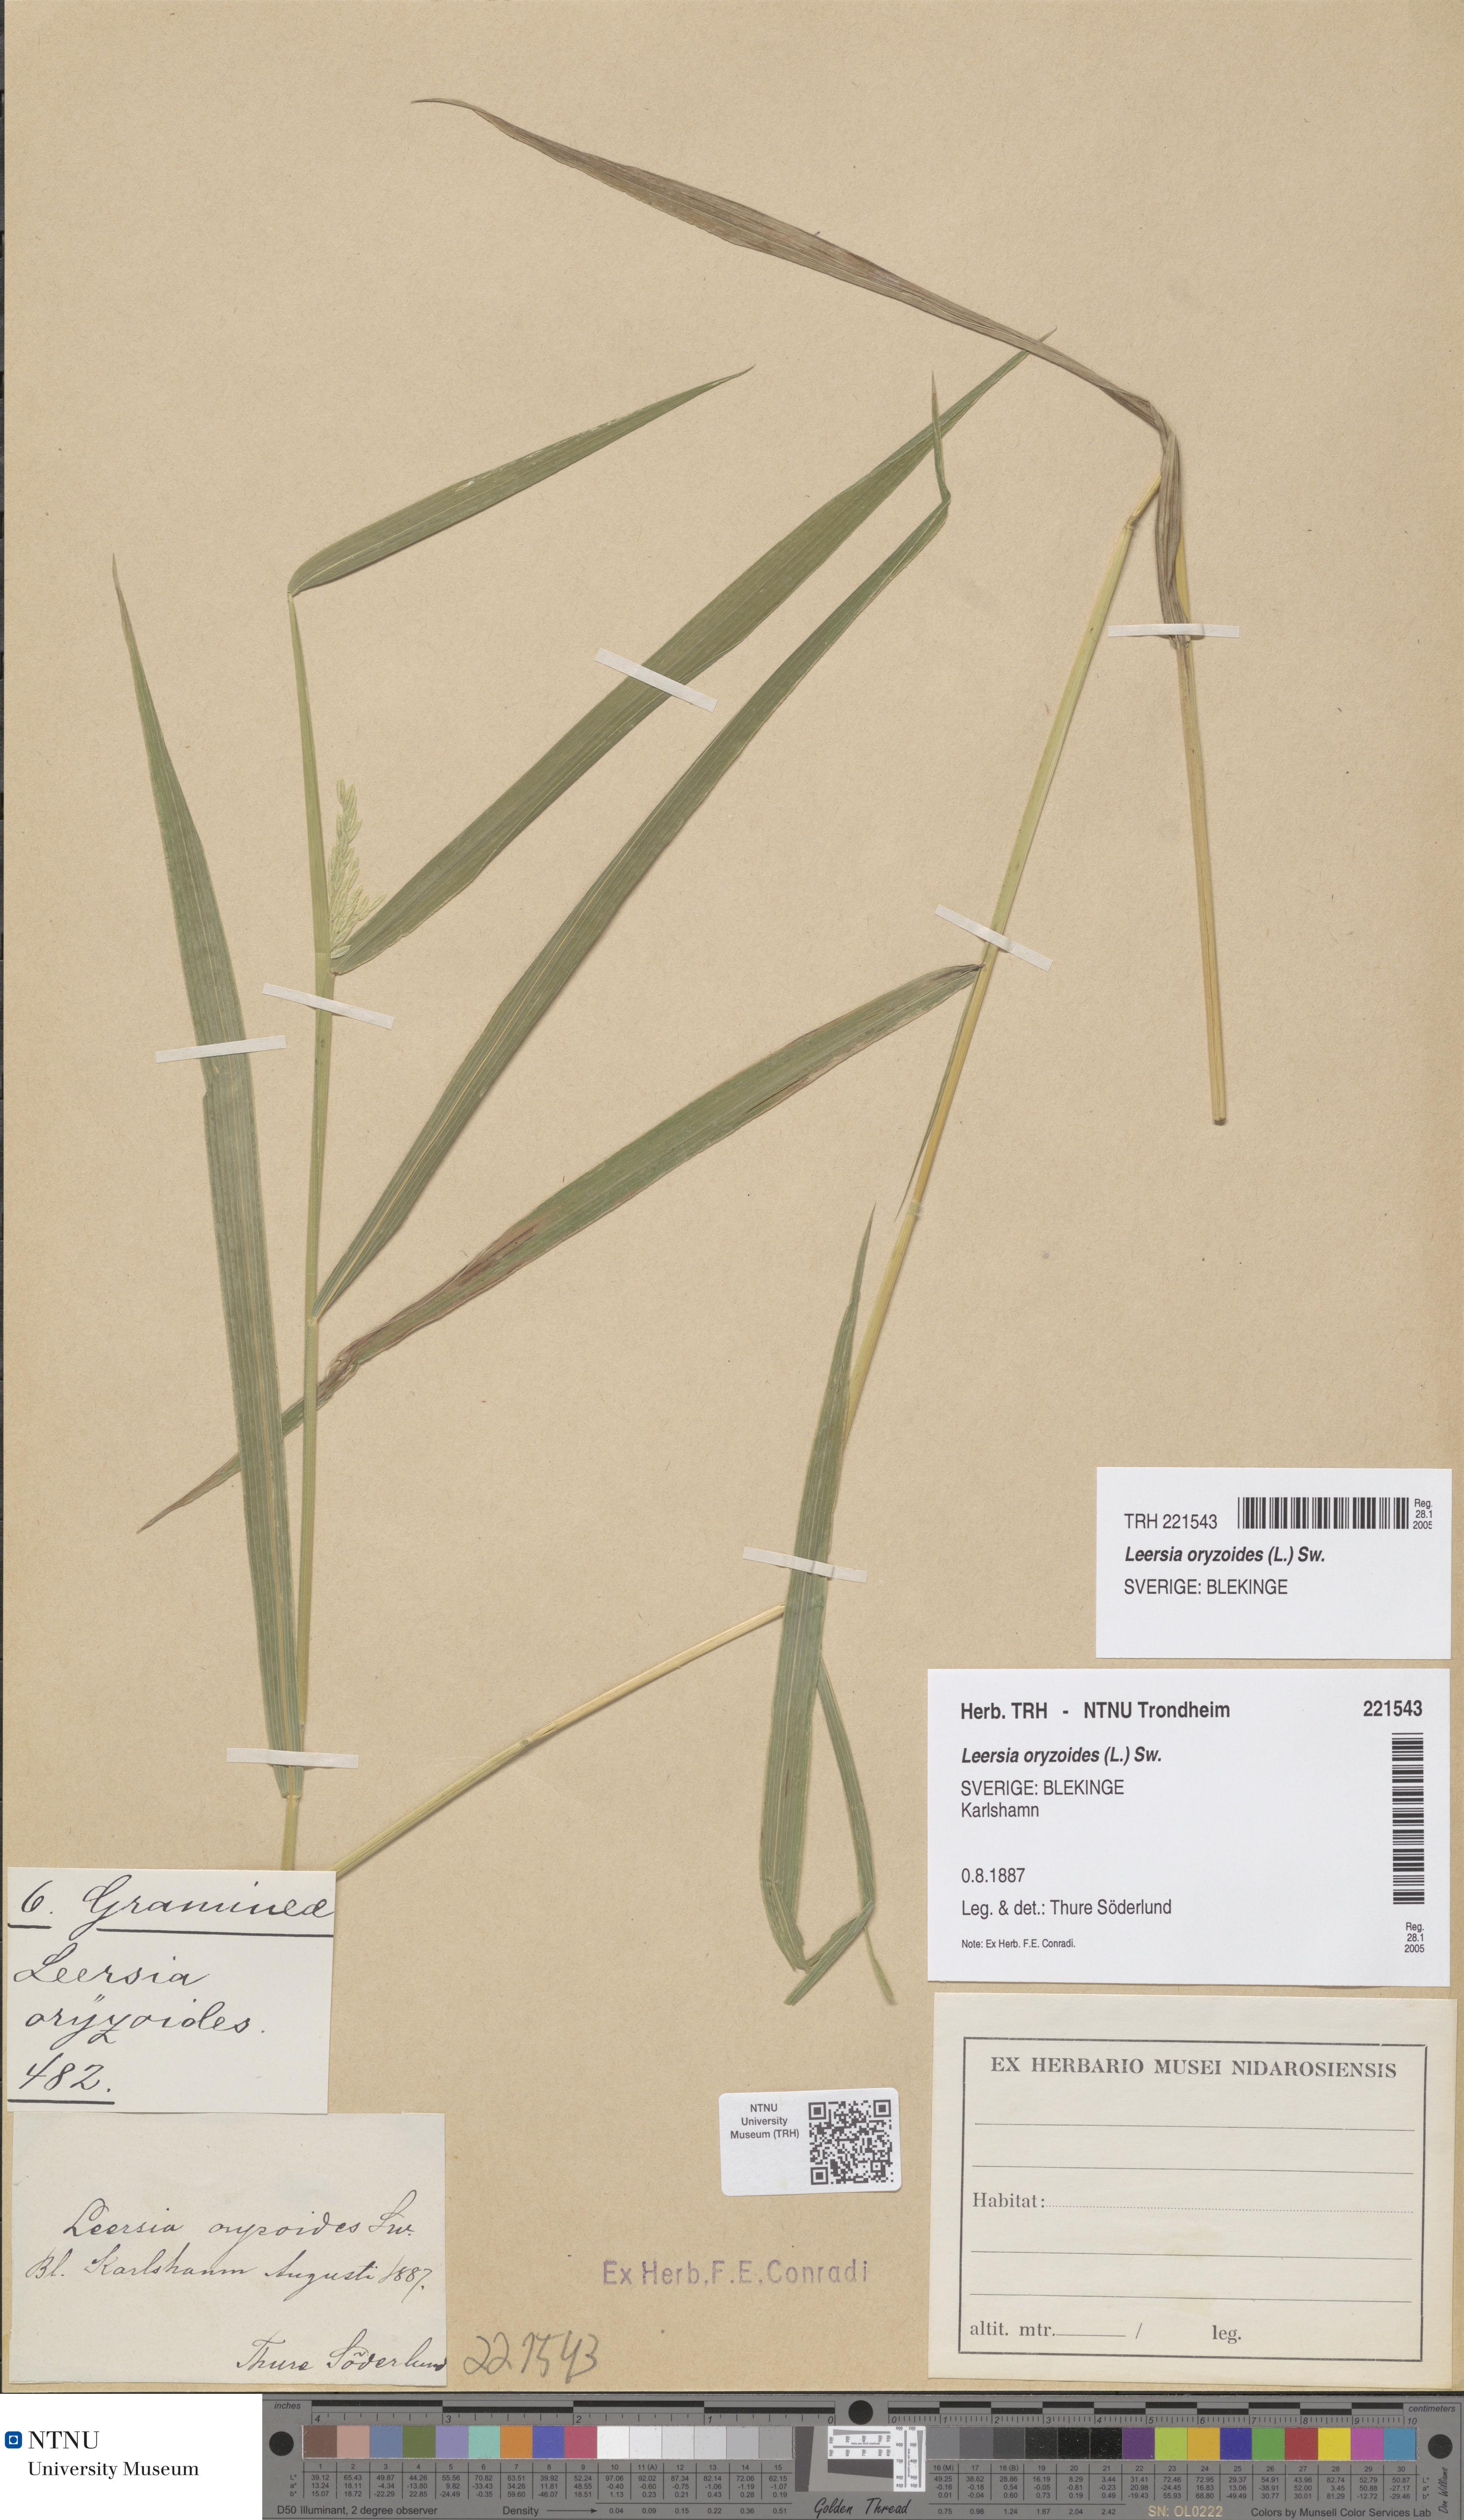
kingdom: Plantae
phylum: Tracheophyta
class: Liliopsida
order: Poales
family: Poaceae
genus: Leersia
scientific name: Leersia oryzoides
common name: Cut-grass
